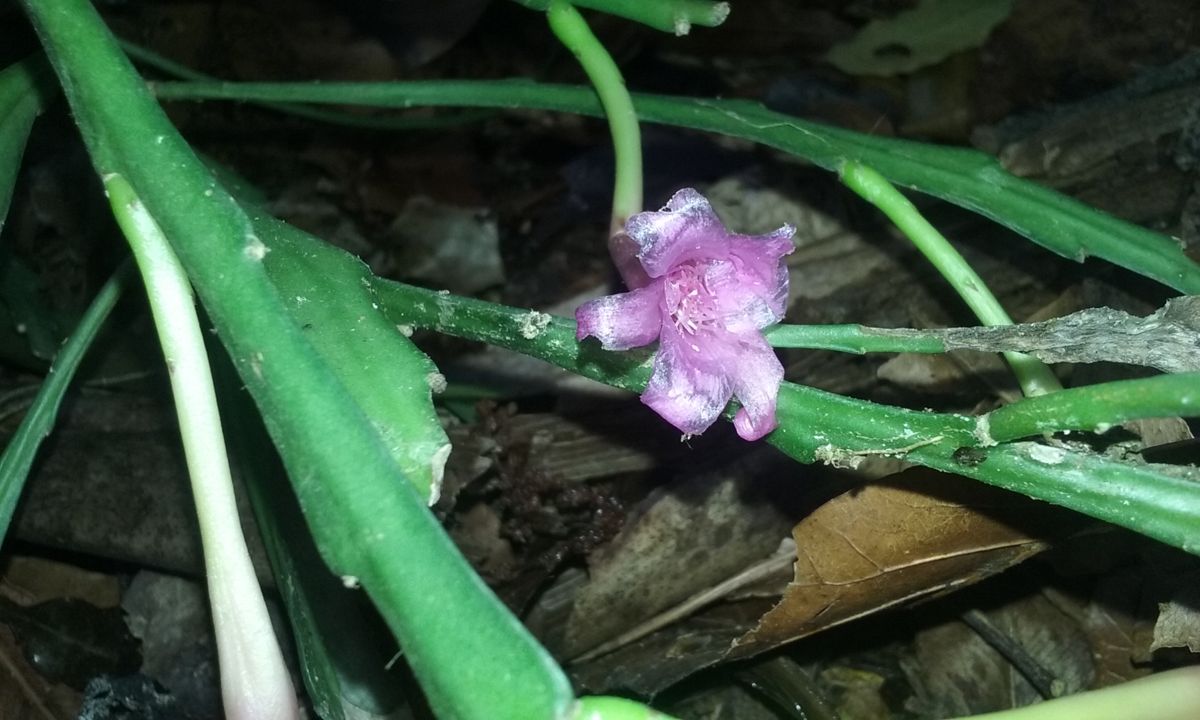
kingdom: Plantae
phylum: Tracheophyta
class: Magnoliopsida
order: Caryophyllales
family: Cactaceae
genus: Disocactus
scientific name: Disocactus nelsonii
